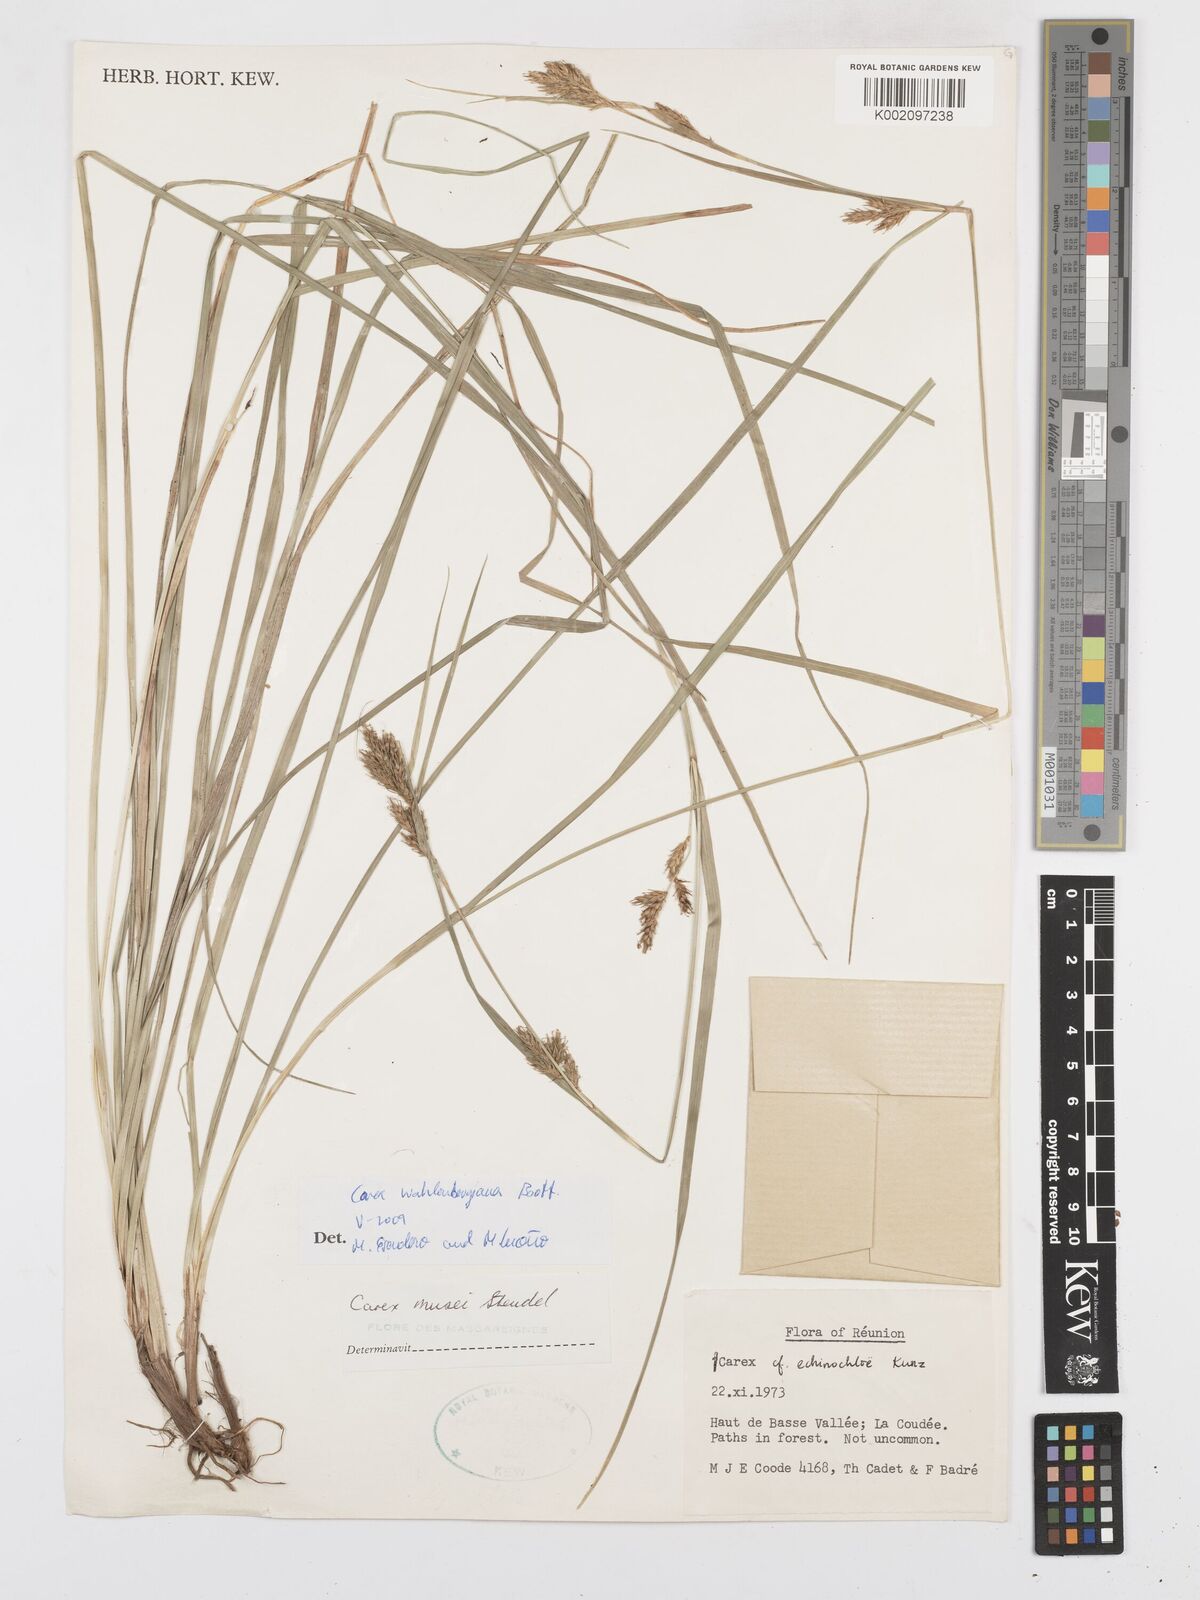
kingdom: Plantae
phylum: Tracheophyta
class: Liliopsida
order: Poales
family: Cyperaceae
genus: Carex
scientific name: Carex wahlenbergiana
